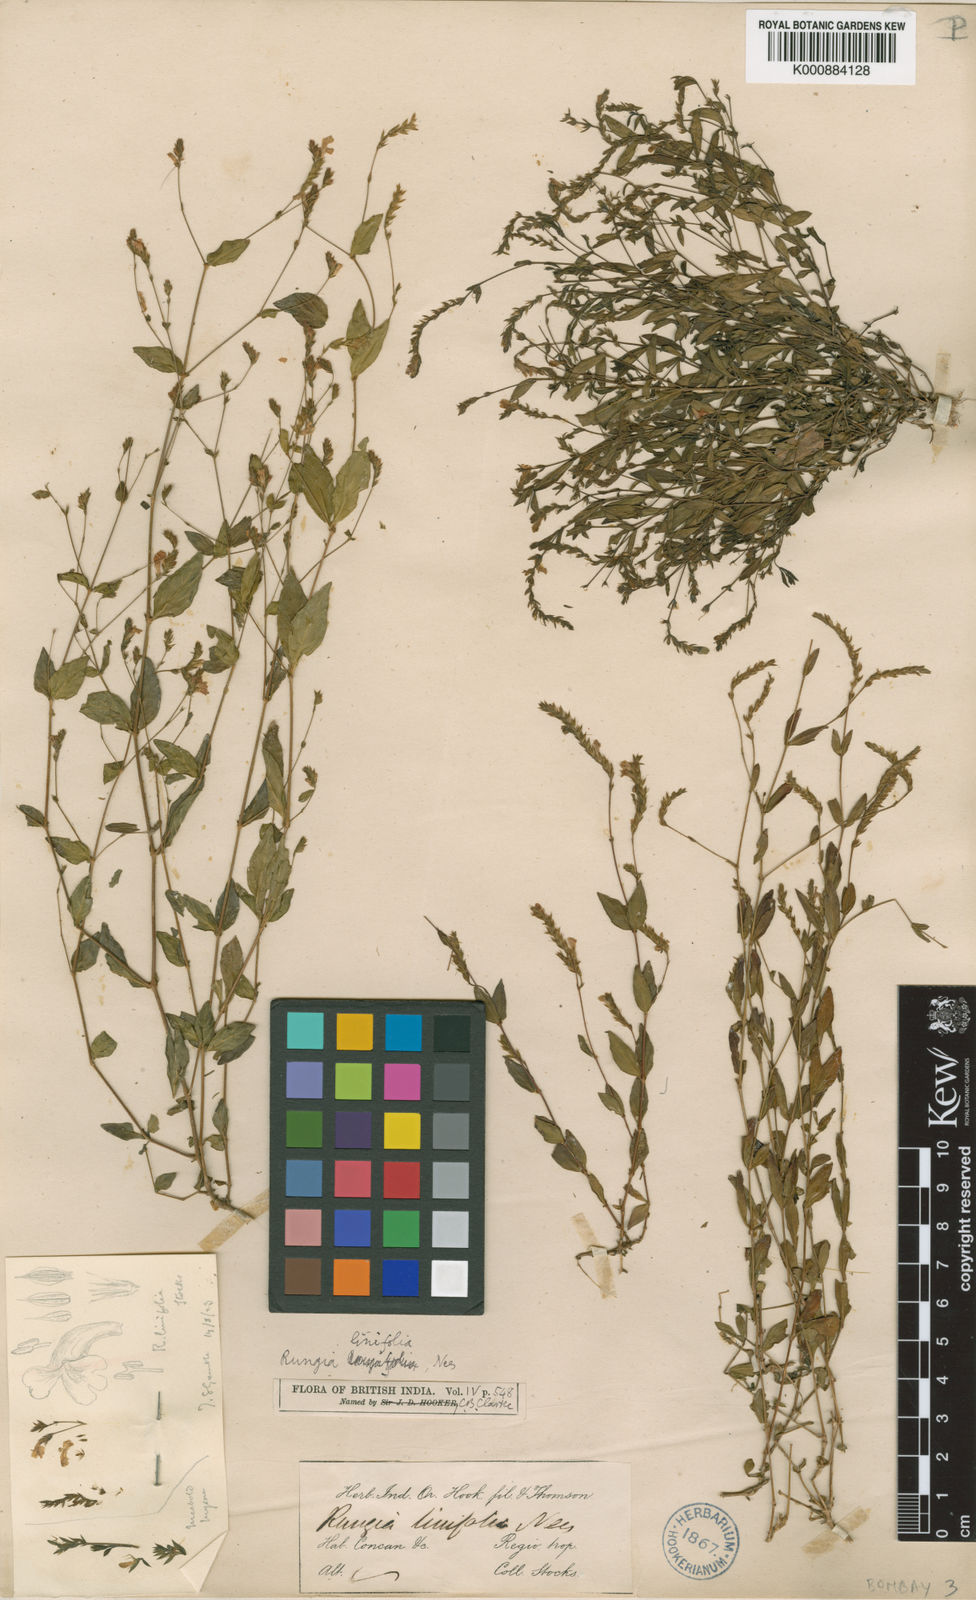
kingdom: Plantae
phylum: Tracheophyta
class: Magnoliopsida
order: Lamiales
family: Acanthaceae
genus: Rungia
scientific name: Rungia linifolia
